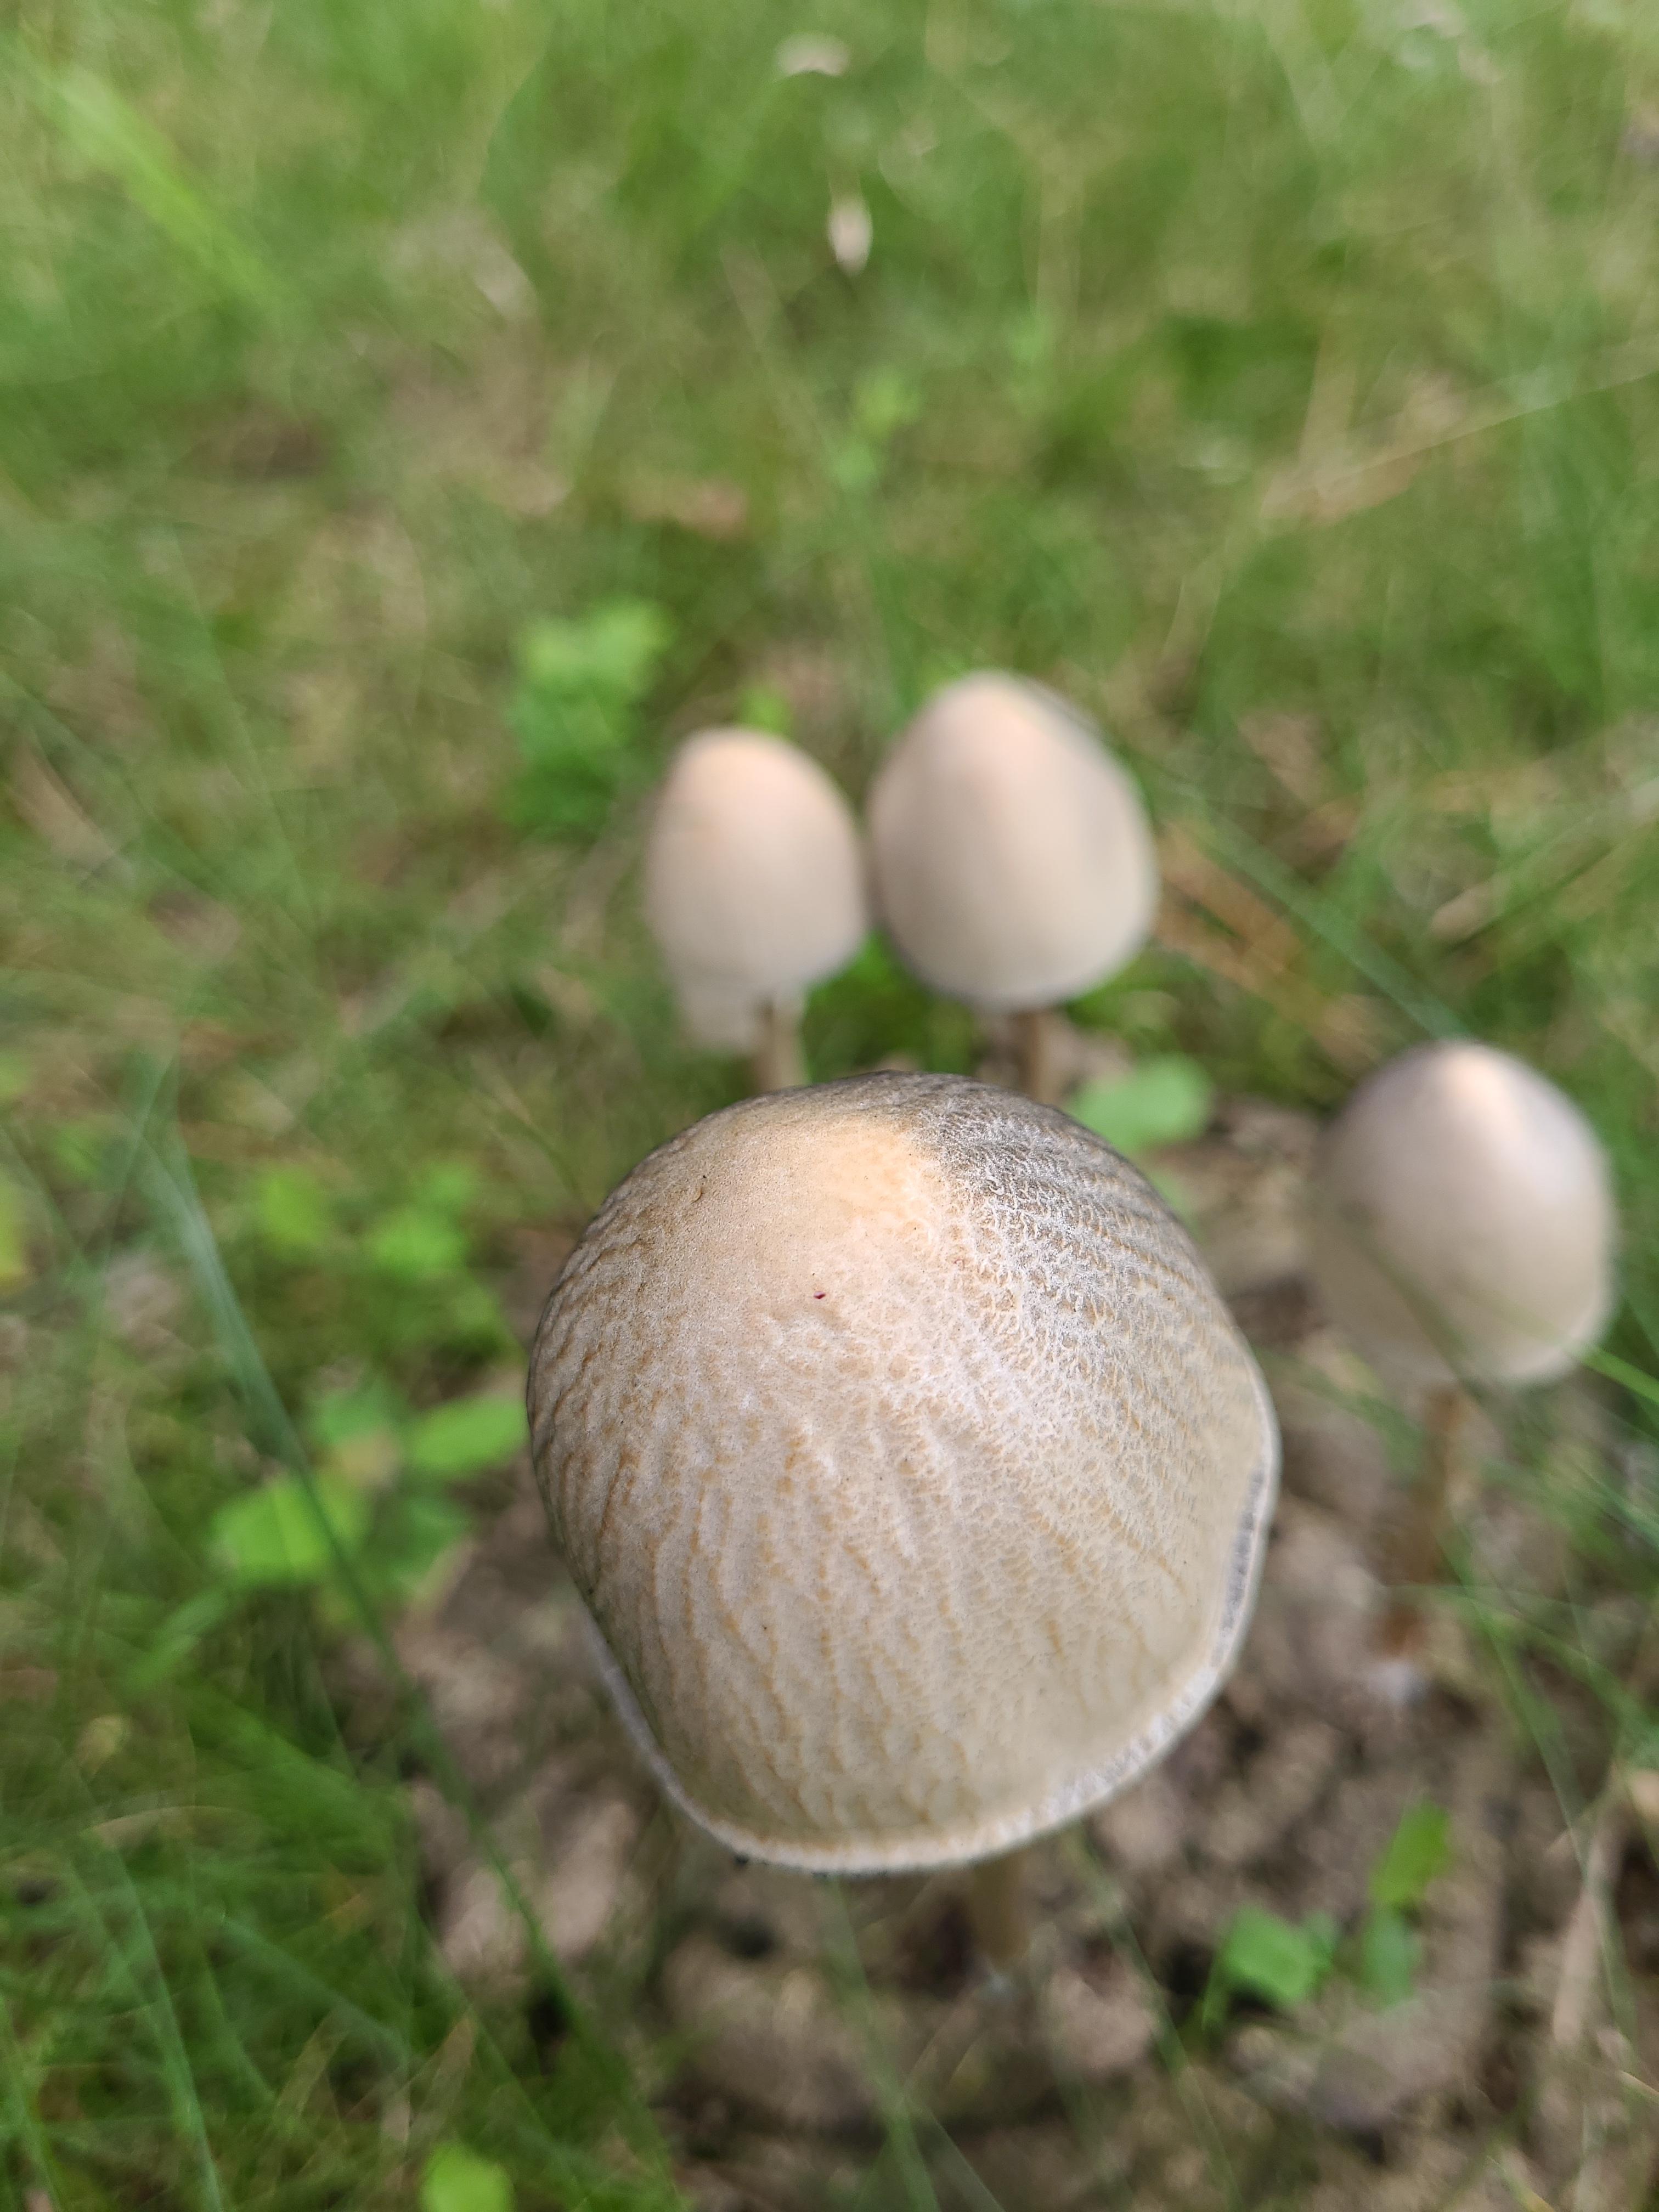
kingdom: Fungi
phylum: Basidiomycota
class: Agaricomycetes
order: Agaricales
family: Bolbitiaceae
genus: Panaeolus
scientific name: Panaeolus semiovatus
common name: ring-glanshat
